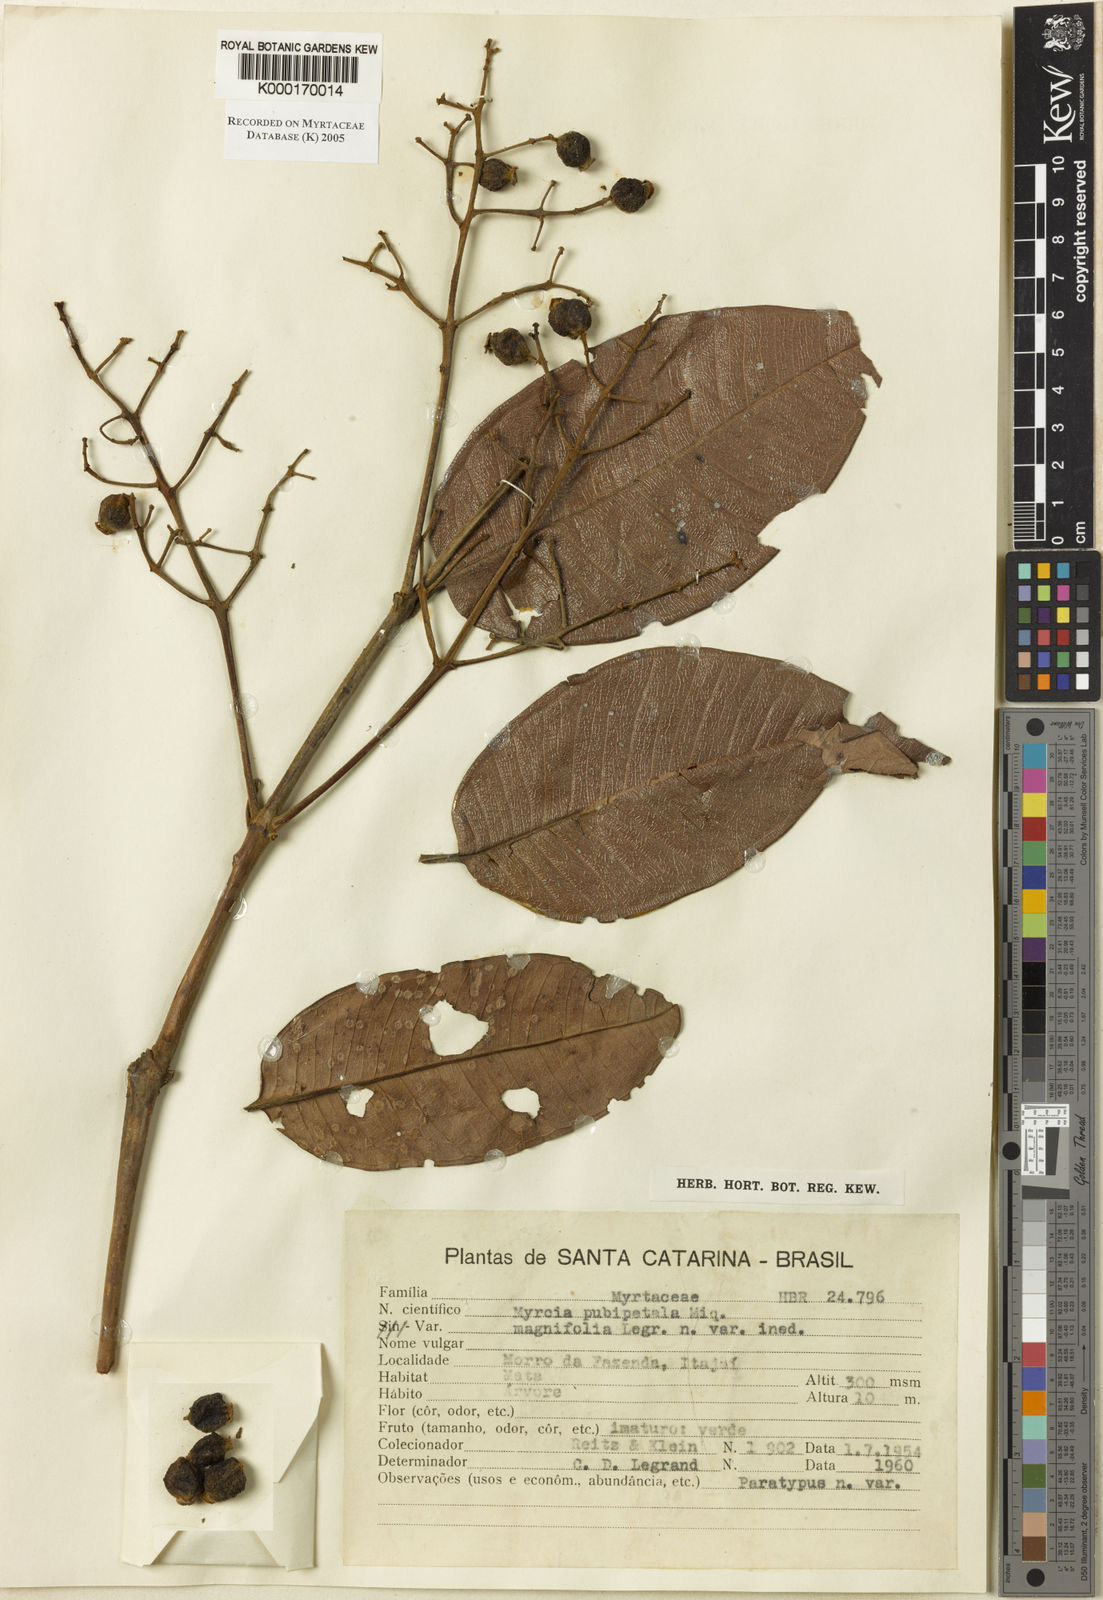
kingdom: Plantae
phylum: Tracheophyta
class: Magnoliopsida
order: Myrtales
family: Myrtaceae
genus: Myrcia
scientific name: Myrcia pubipetala
